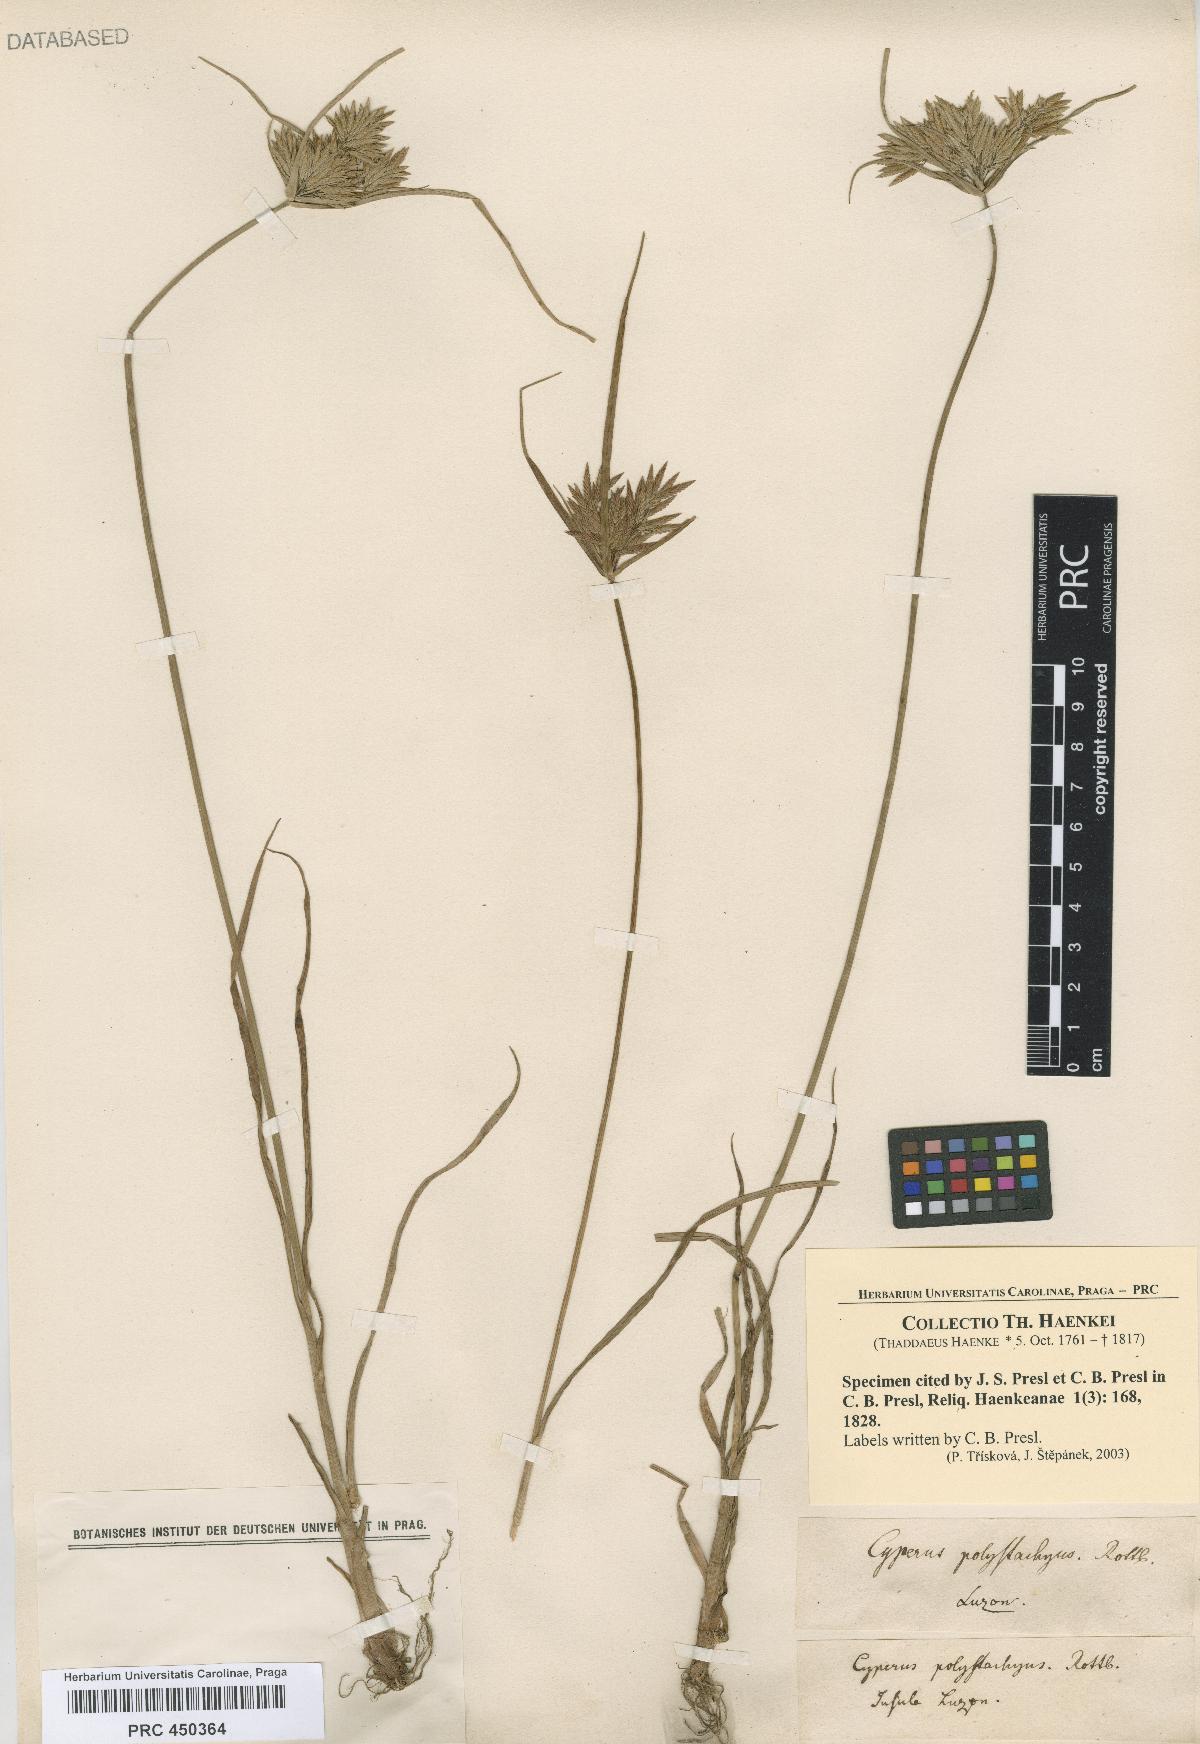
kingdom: Plantae
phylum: Tracheophyta
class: Liliopsida
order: Poales
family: Cyperaceae
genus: Cyperus
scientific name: Cyperus polystachyos
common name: Bunchy flat sedge
